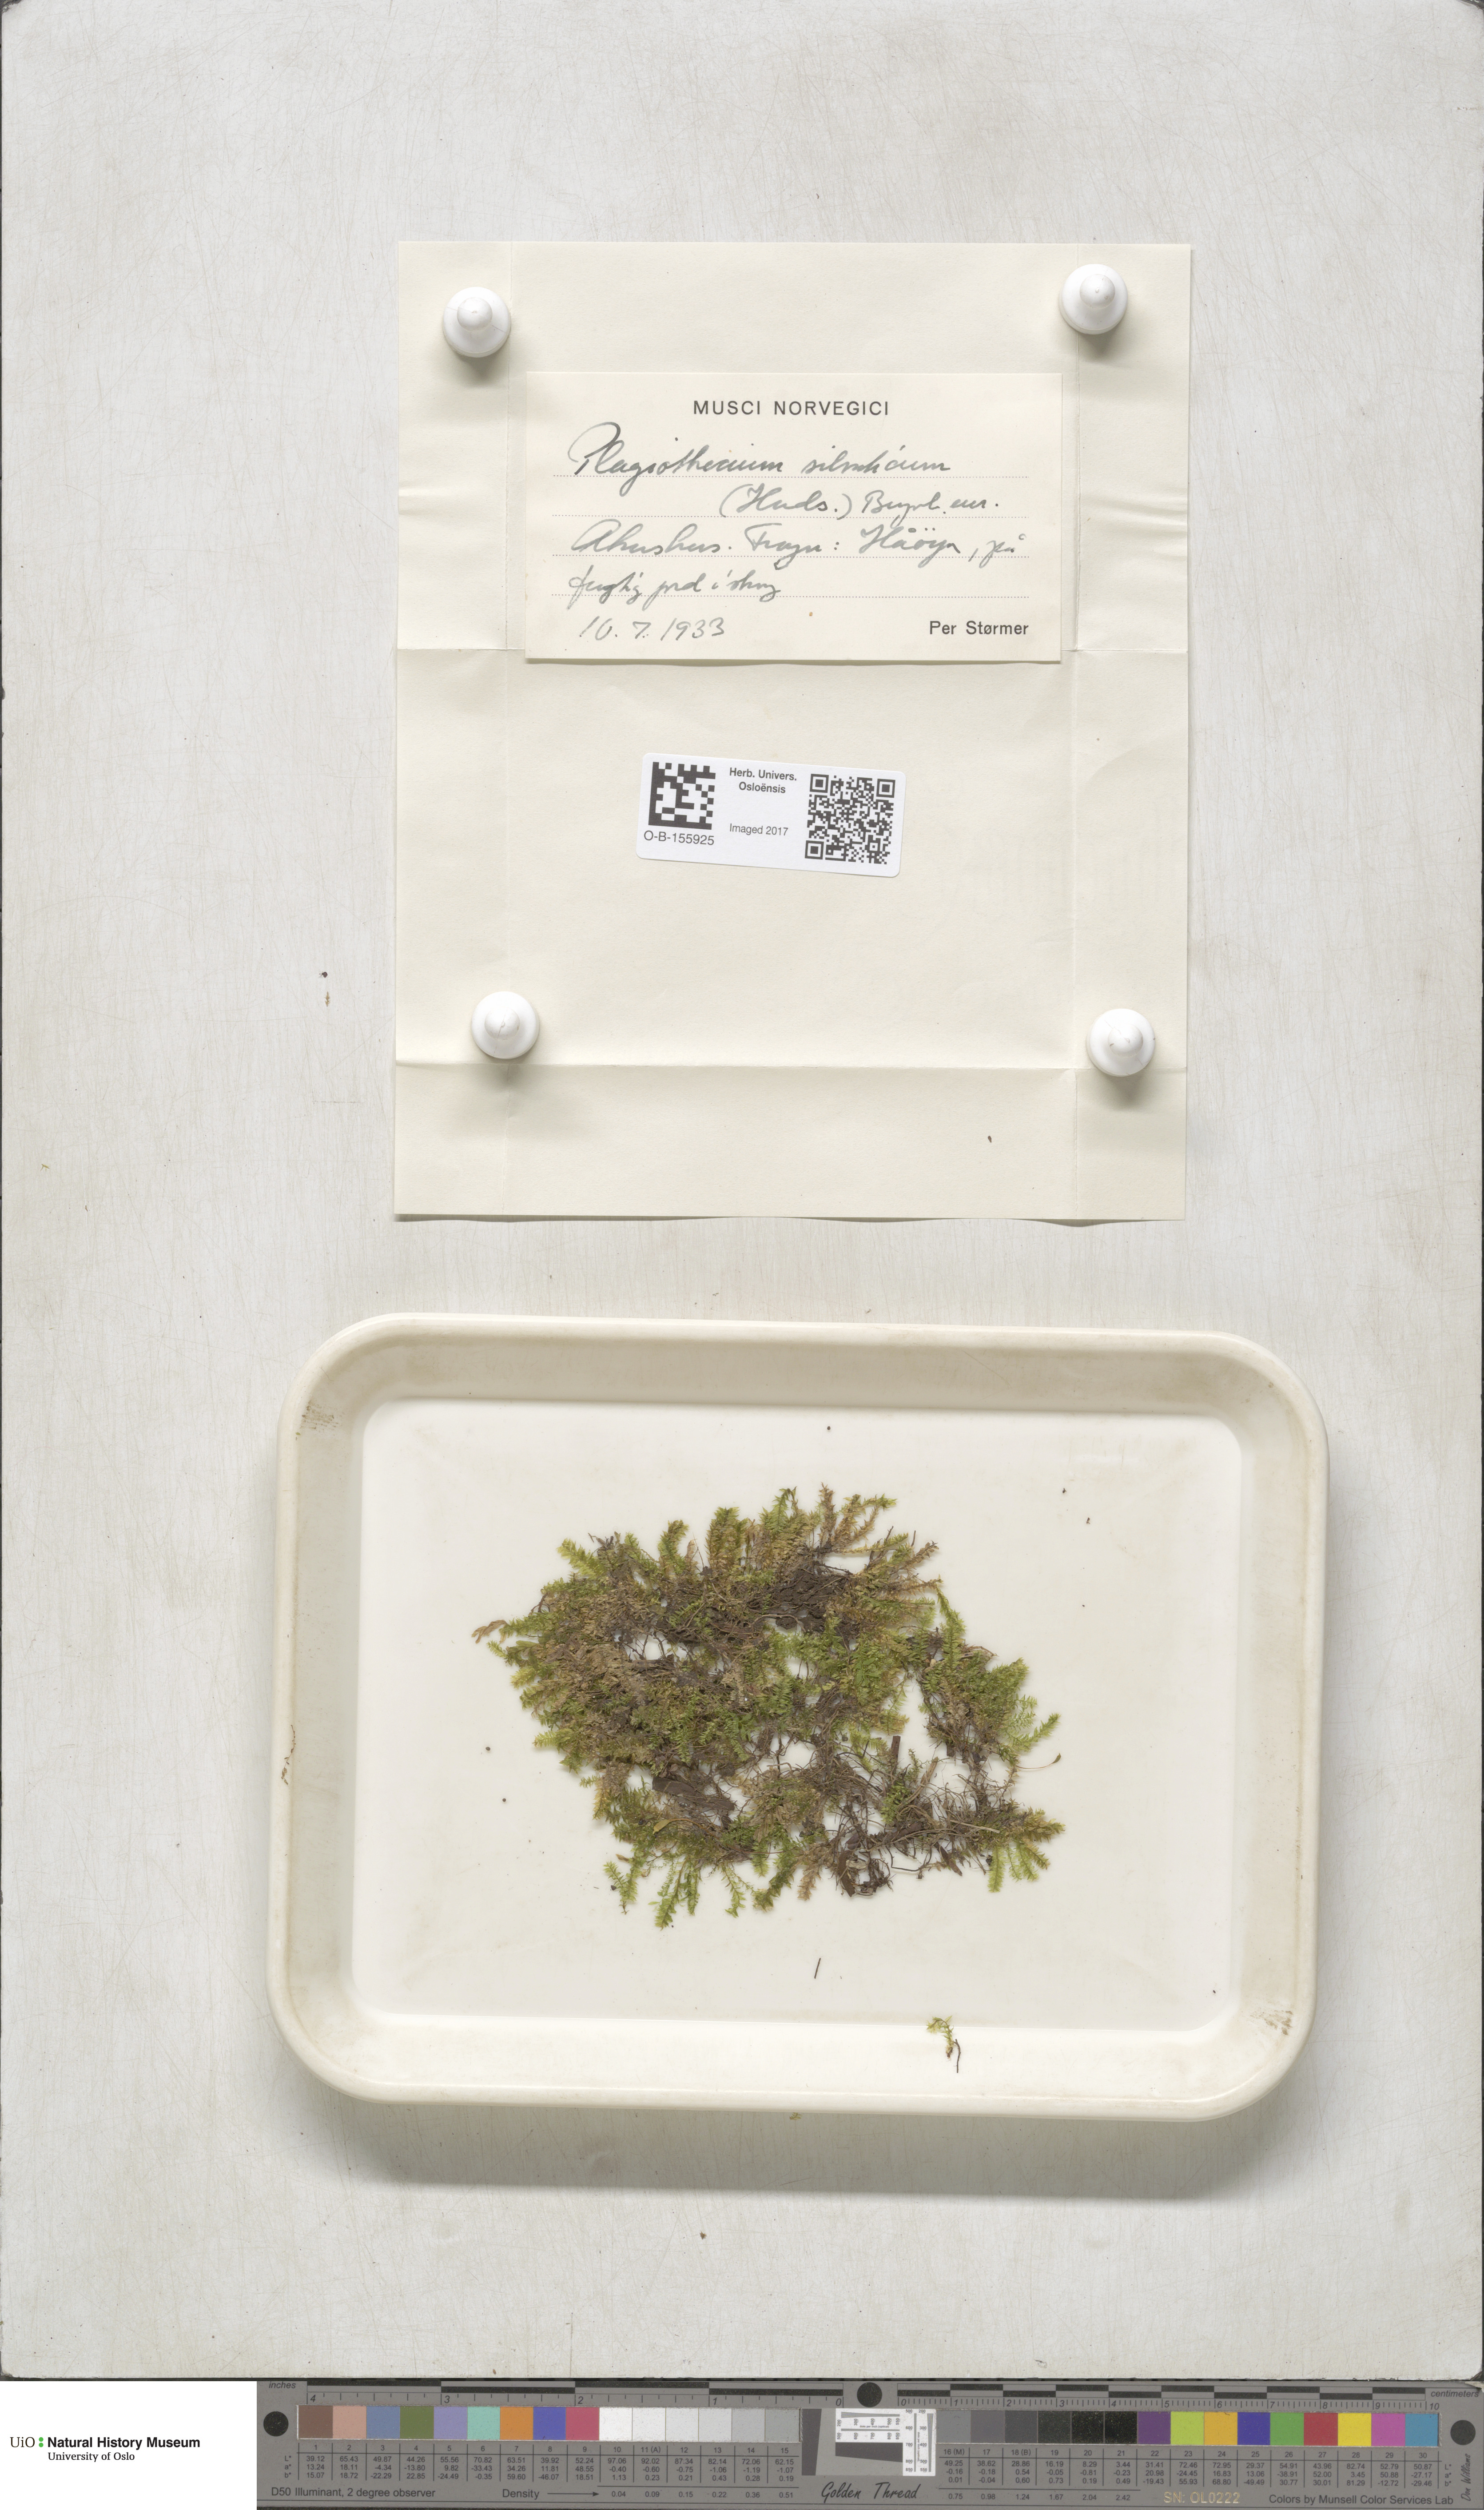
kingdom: Plantae
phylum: Bryophyta
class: Bryopsida
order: Hypnales
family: Plagiotheciaceae
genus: Plagiothecium
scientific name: Plagiothecium nemorale
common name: Woodsy silk-moss
